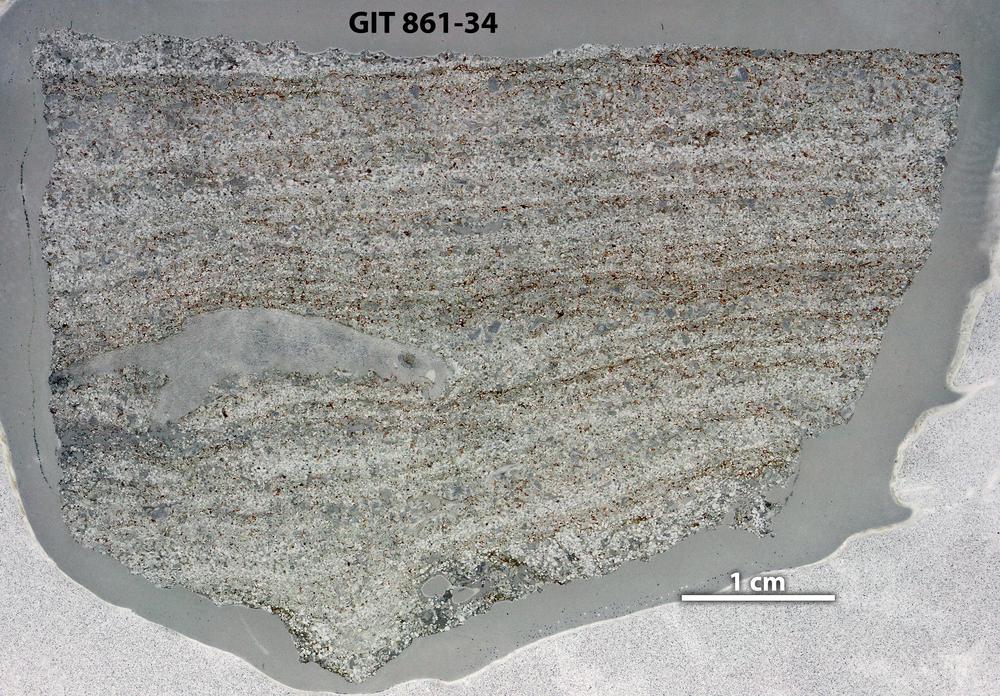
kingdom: Animalia
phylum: Porifera
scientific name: Porifera
